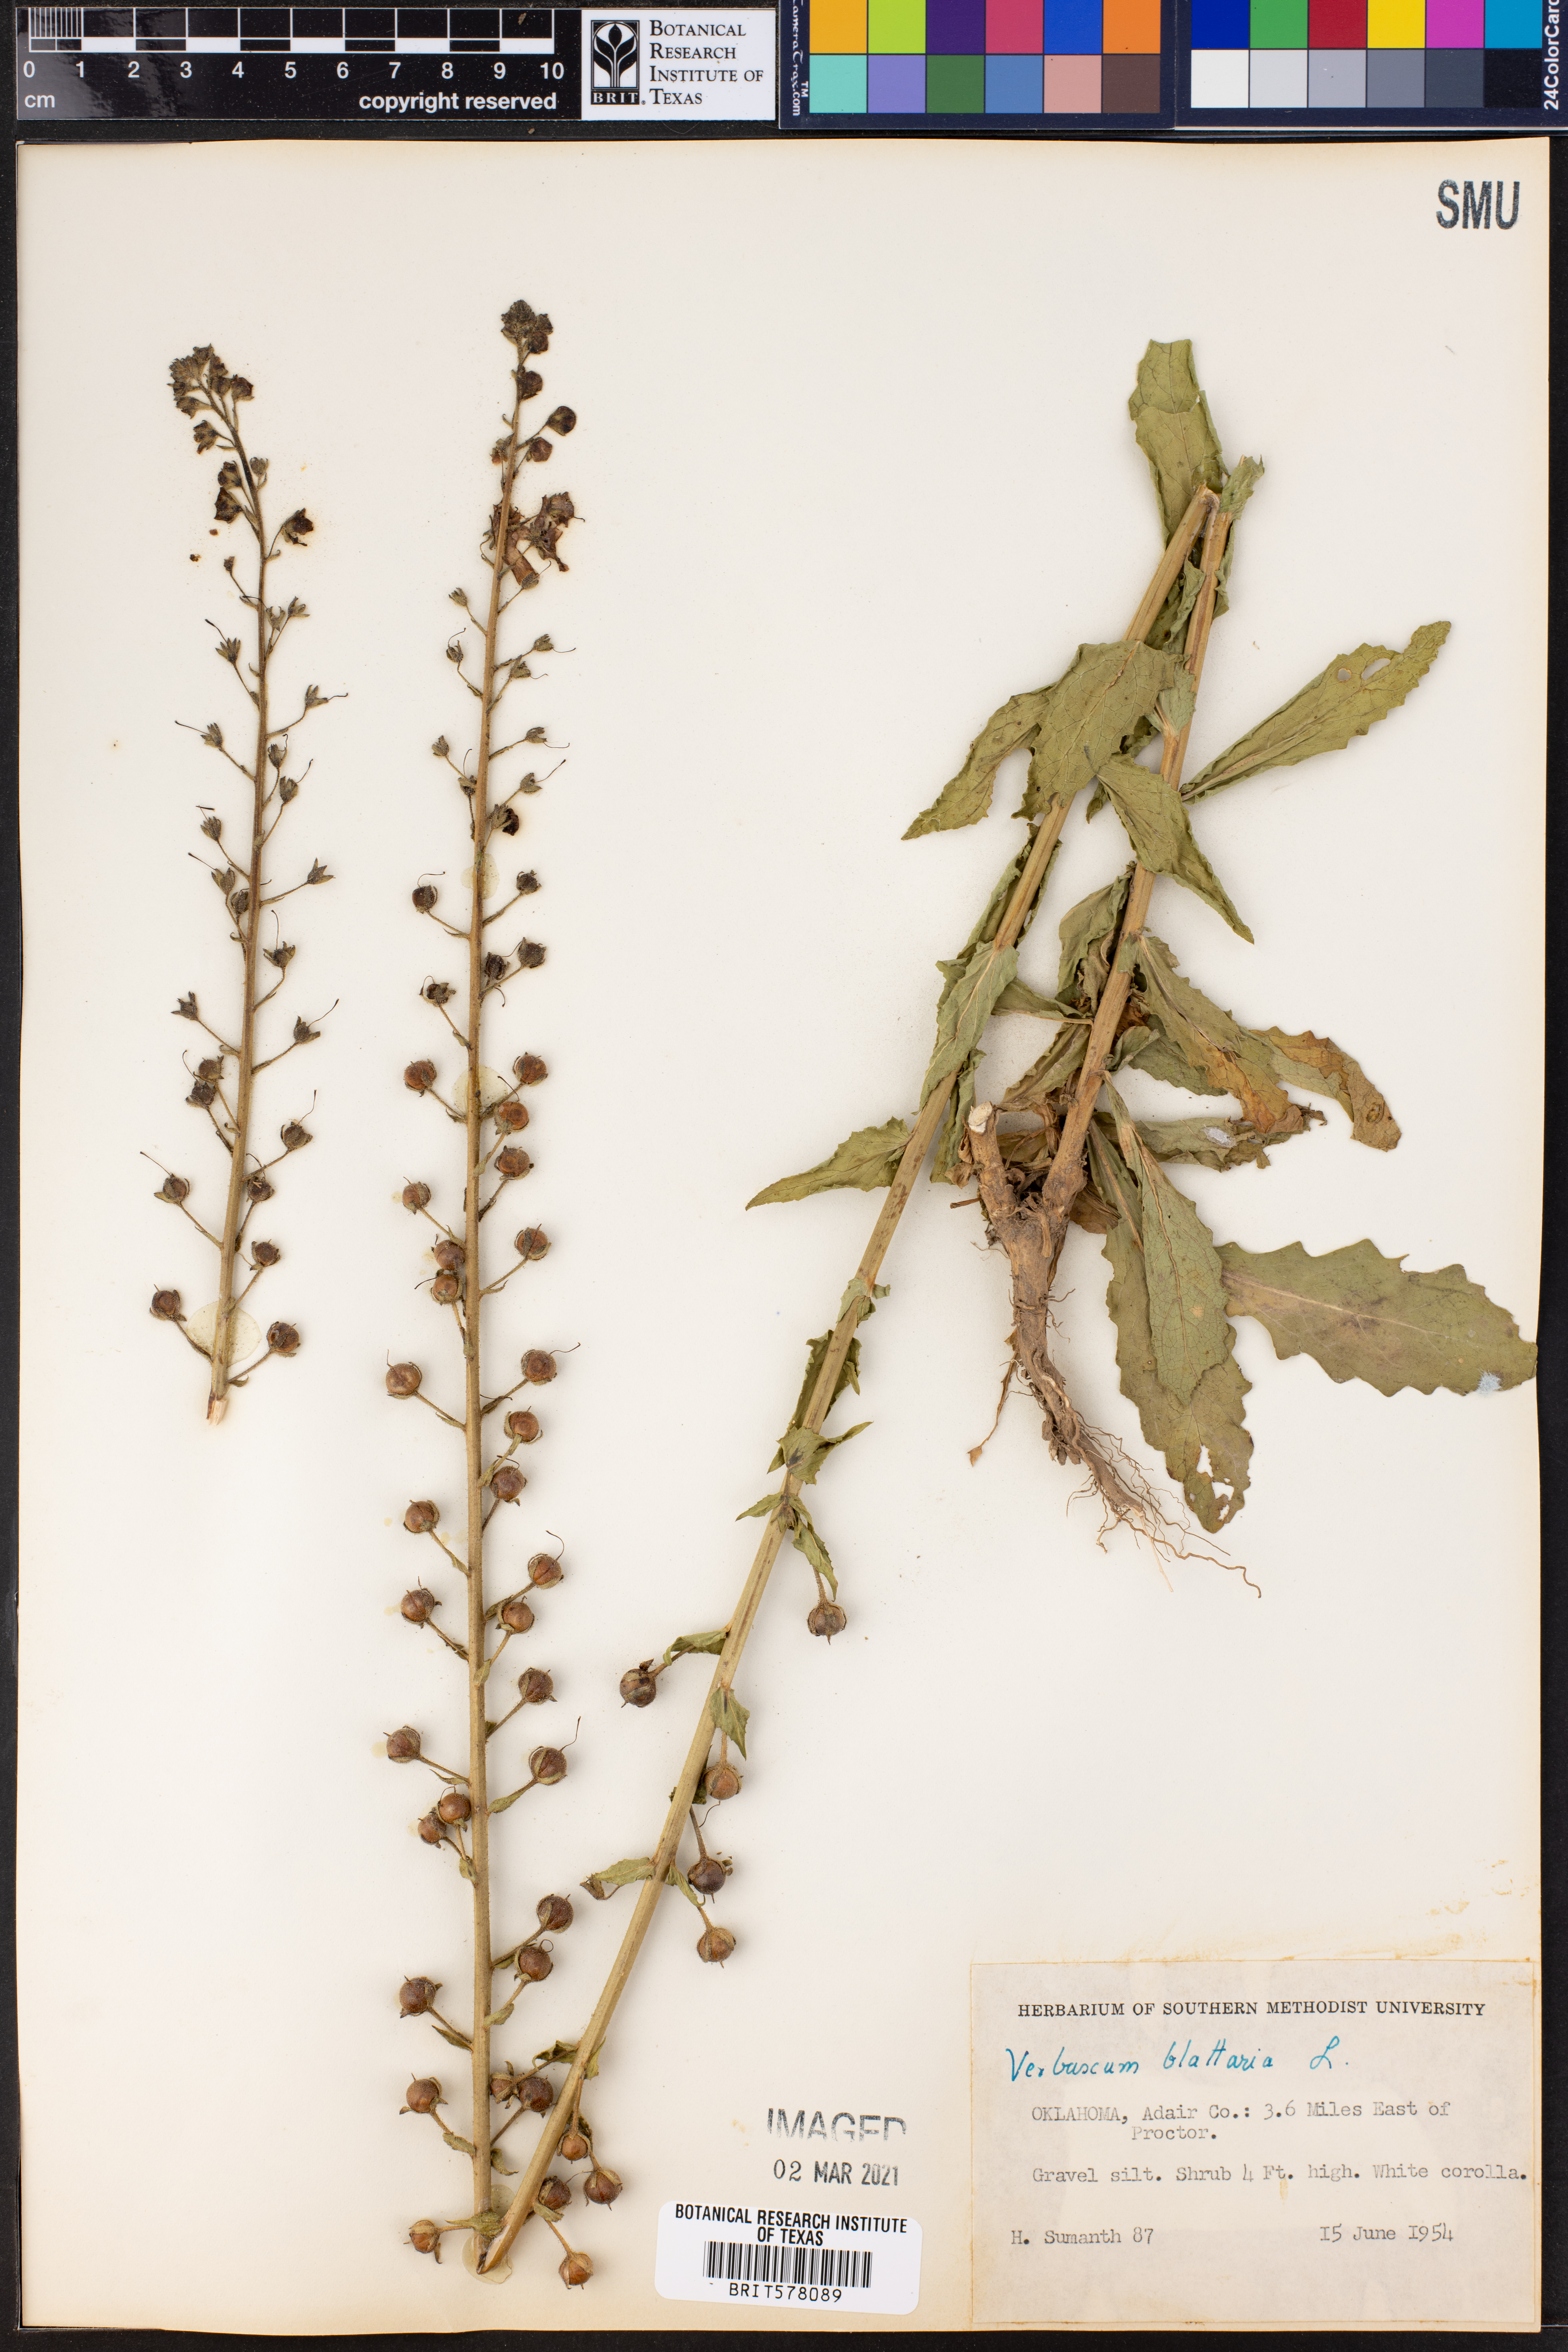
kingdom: Plantae
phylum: Tracheophyta
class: Magnoliopsida
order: Lamiales
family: Scrophulariaceae
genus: Verbascum
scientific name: Verbascum blattaria
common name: Moth mullein
